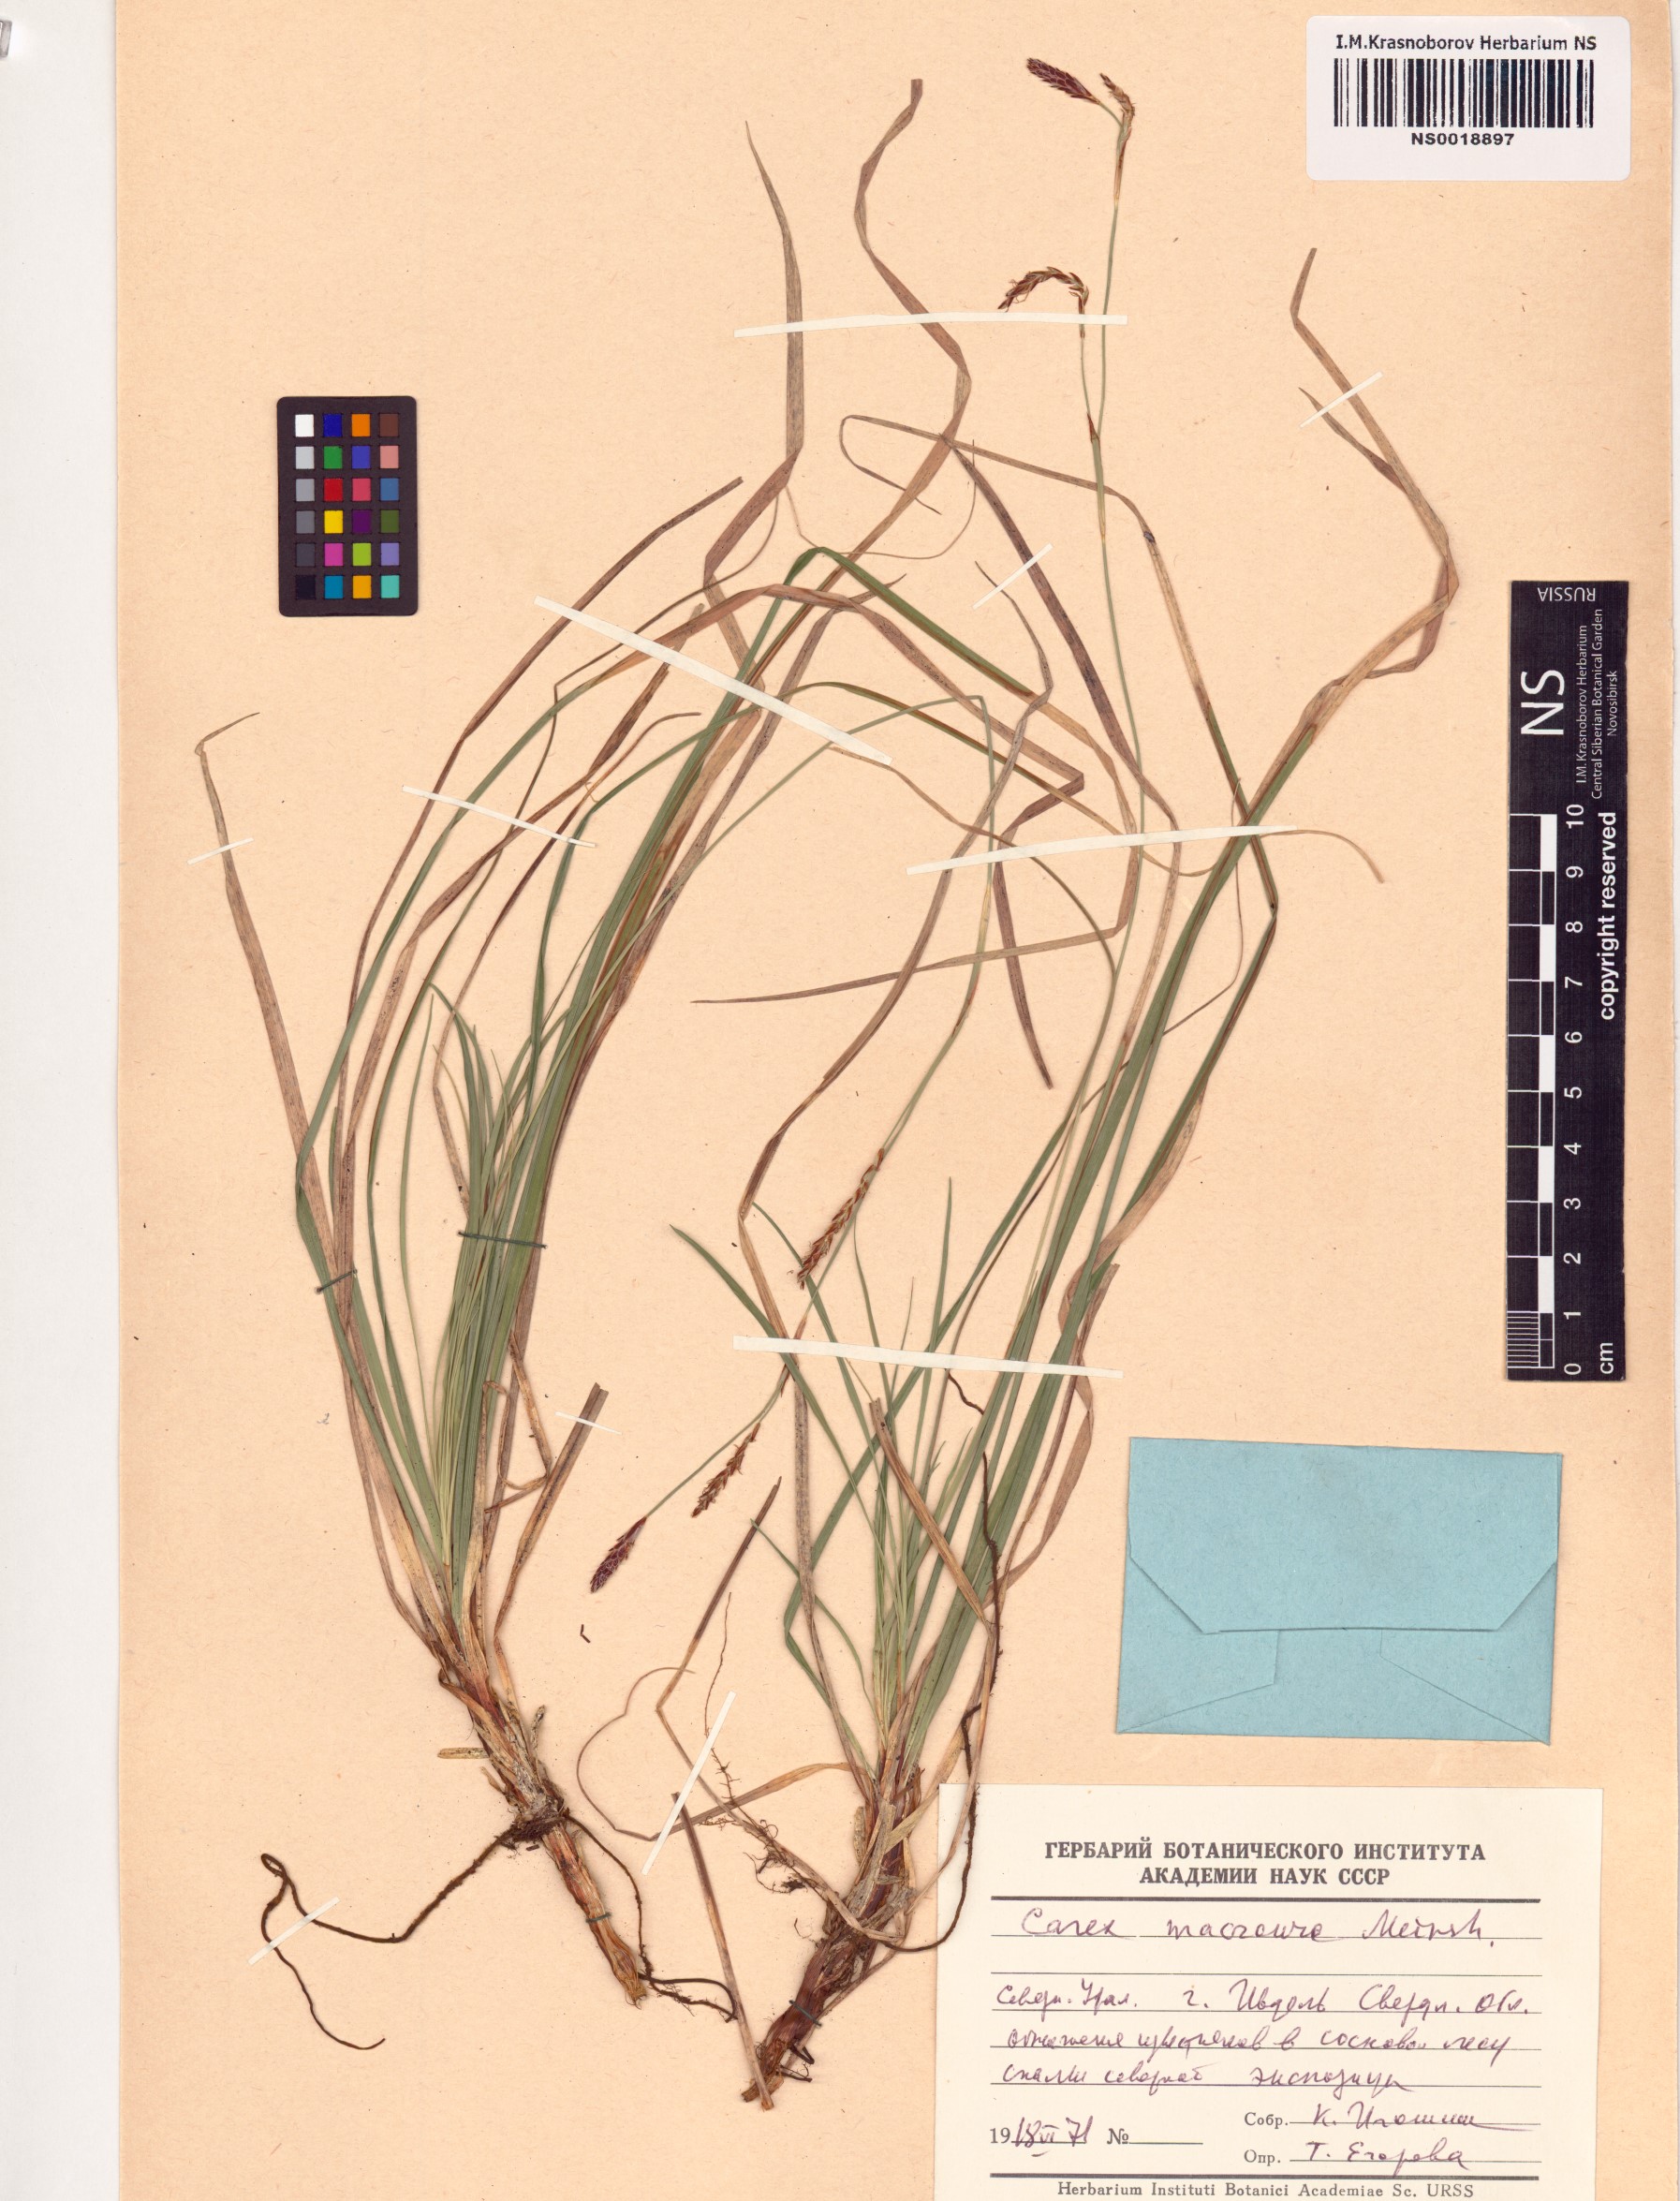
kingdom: Plantae
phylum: Tracheophyta
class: Liliopsida
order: Poales
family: Cyperaceae
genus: Carex
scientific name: Carex pediformis
